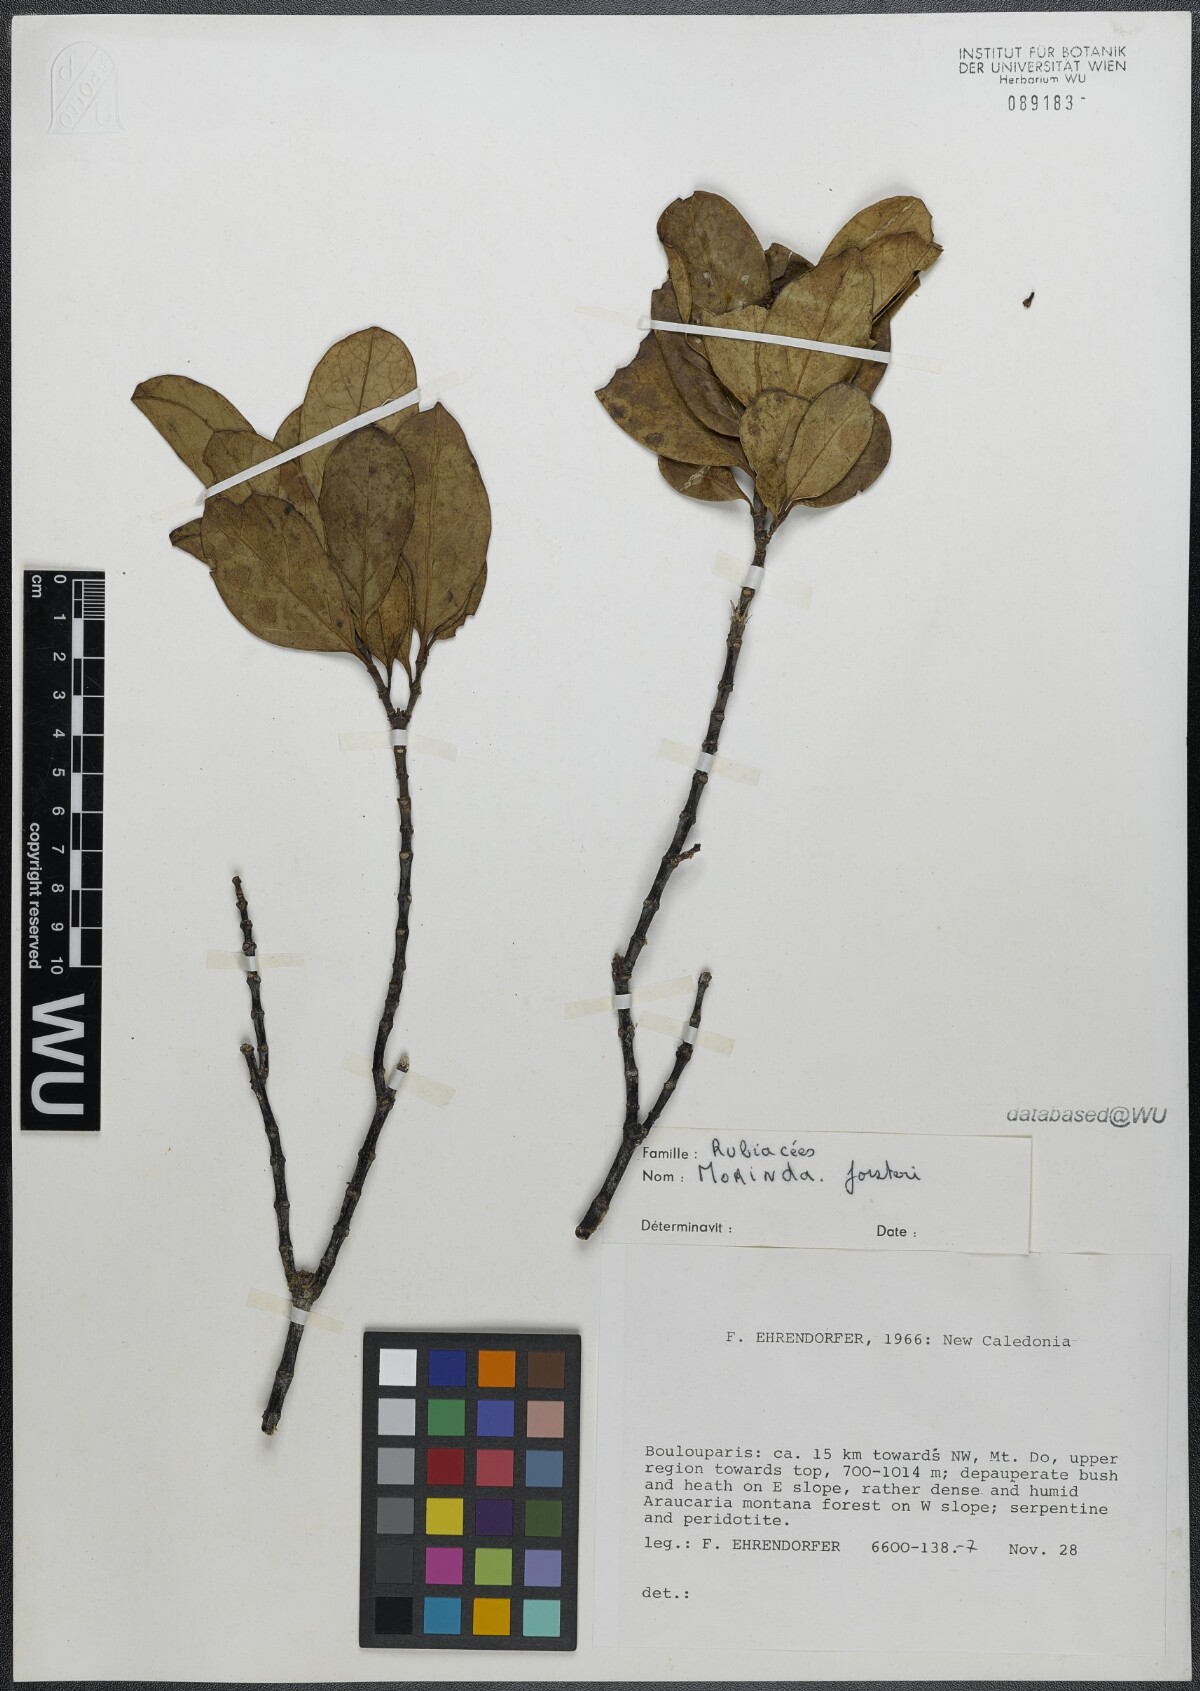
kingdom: Plantae
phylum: Tracheophyta
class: Magnoliopsida
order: Gentianales
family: Rubiaceae
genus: Gynochthodes
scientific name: Gynochthodes myrtifolia
